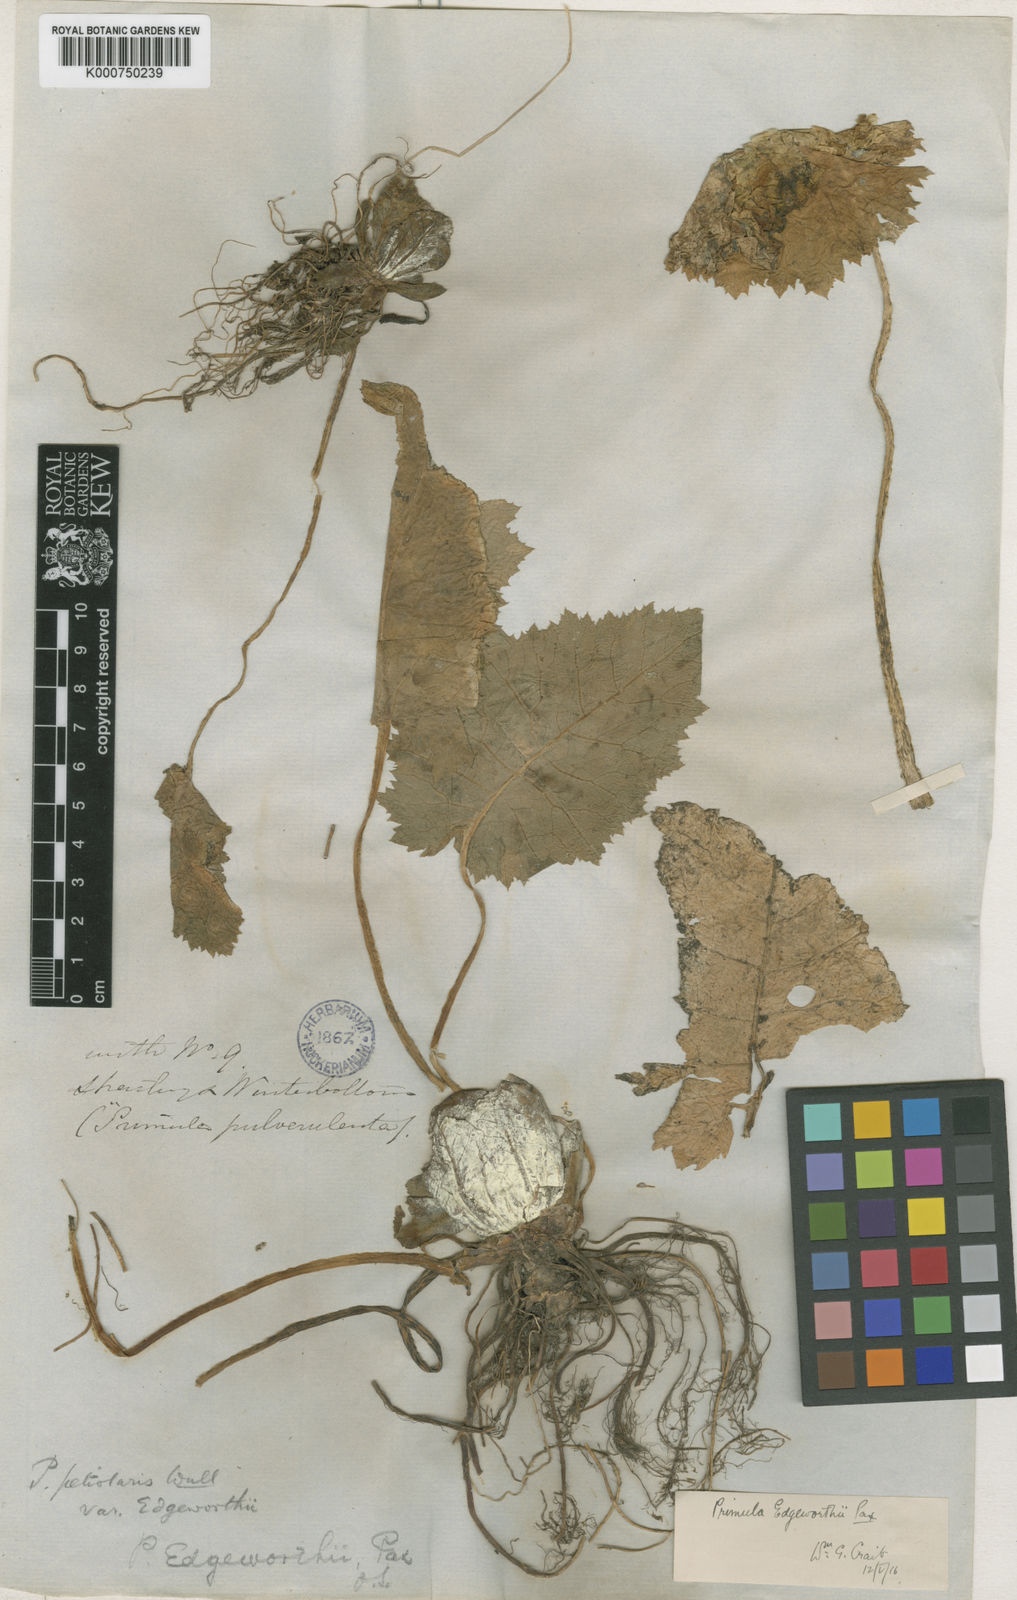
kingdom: Plantae
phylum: Tracheophyta
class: Magnoliopsida
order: Ericales
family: Primulaceae
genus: Primula
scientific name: Primula nana
